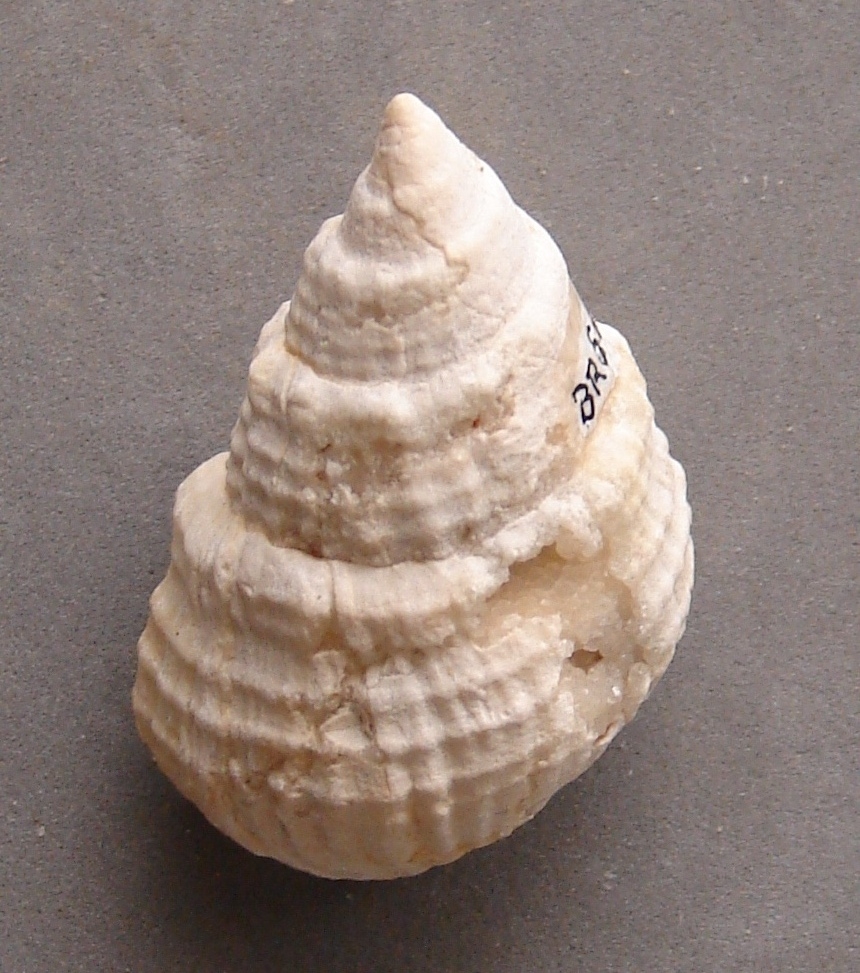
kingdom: Animalia
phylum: Mollusca
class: Gastropoda
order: Neogastropoda
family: Purpurinidae
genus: Microschiza
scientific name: Microschiza
